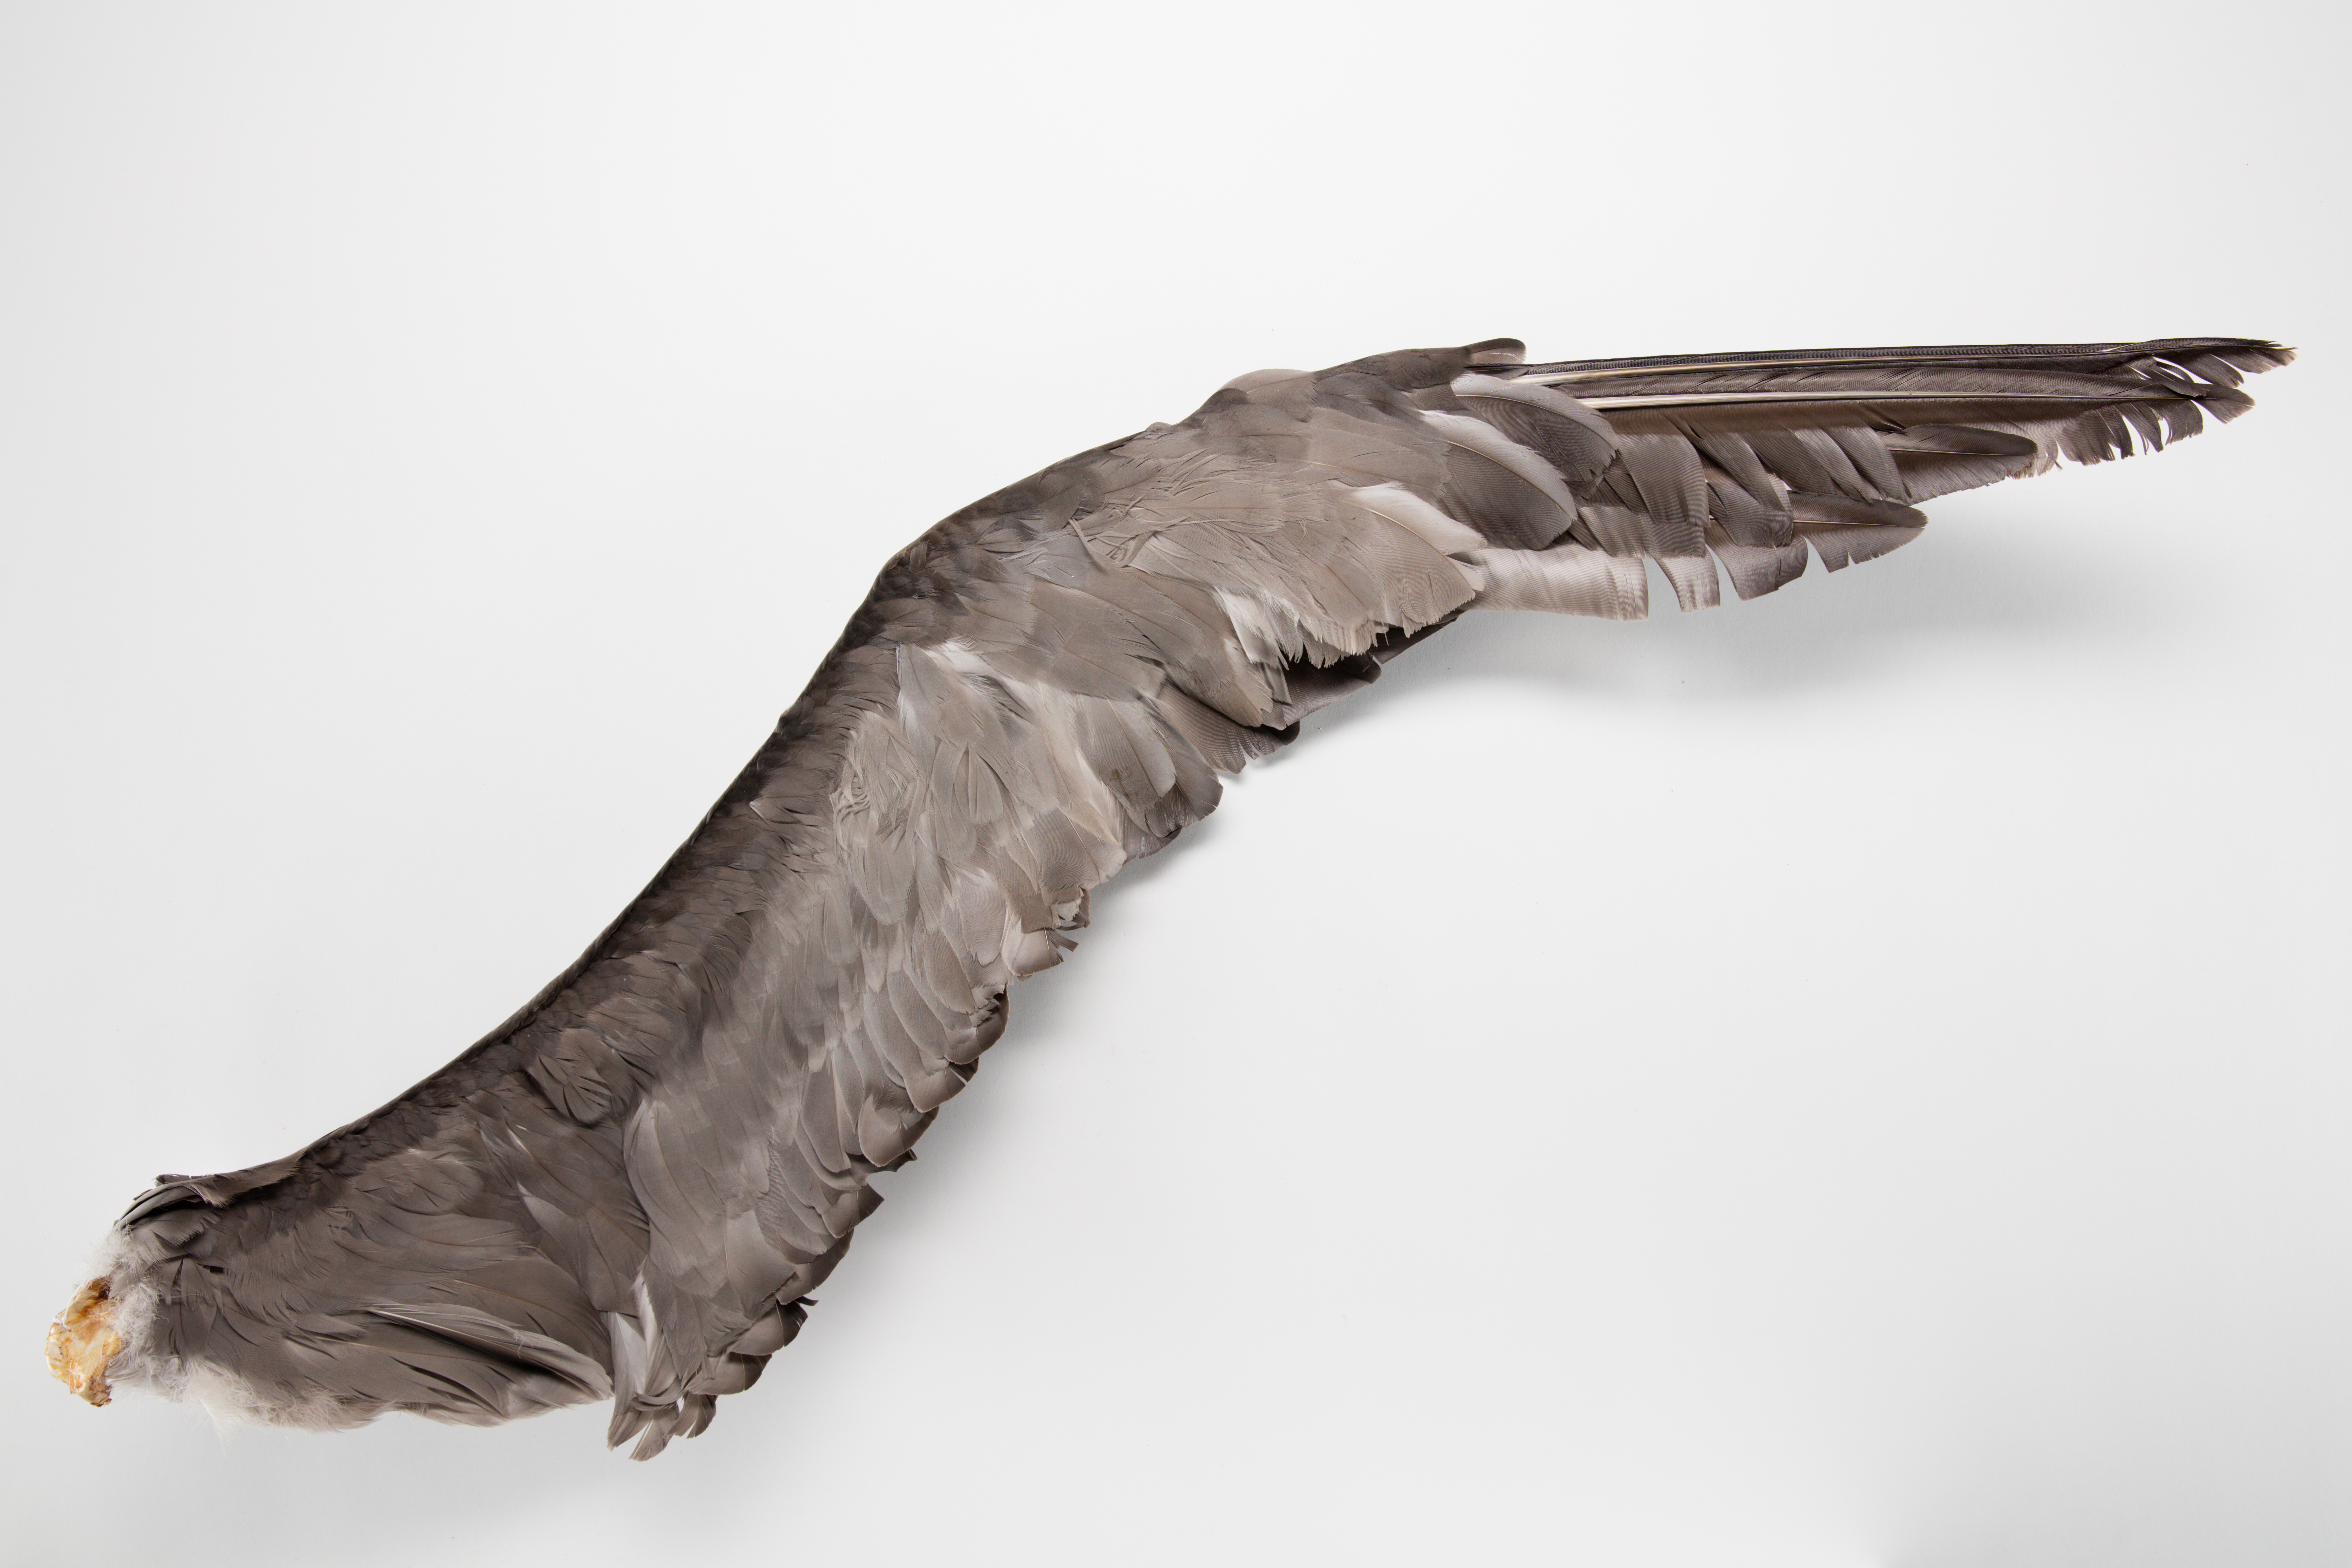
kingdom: Animalia
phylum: Chordata
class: Aves
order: Procellariiformes
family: Diomedeidae
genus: Phoebetria
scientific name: Phoebetria palpebrata
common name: Light-mantled albatross
